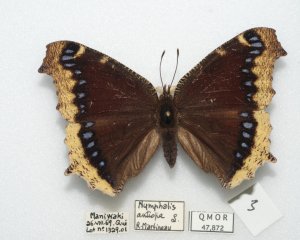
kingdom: Animalia
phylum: Arthropoda
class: Insecta
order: Lepidoptera
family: Nymphalidae
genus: Nymphalis
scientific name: Nymphalis antiopa
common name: Mourning Cloak
